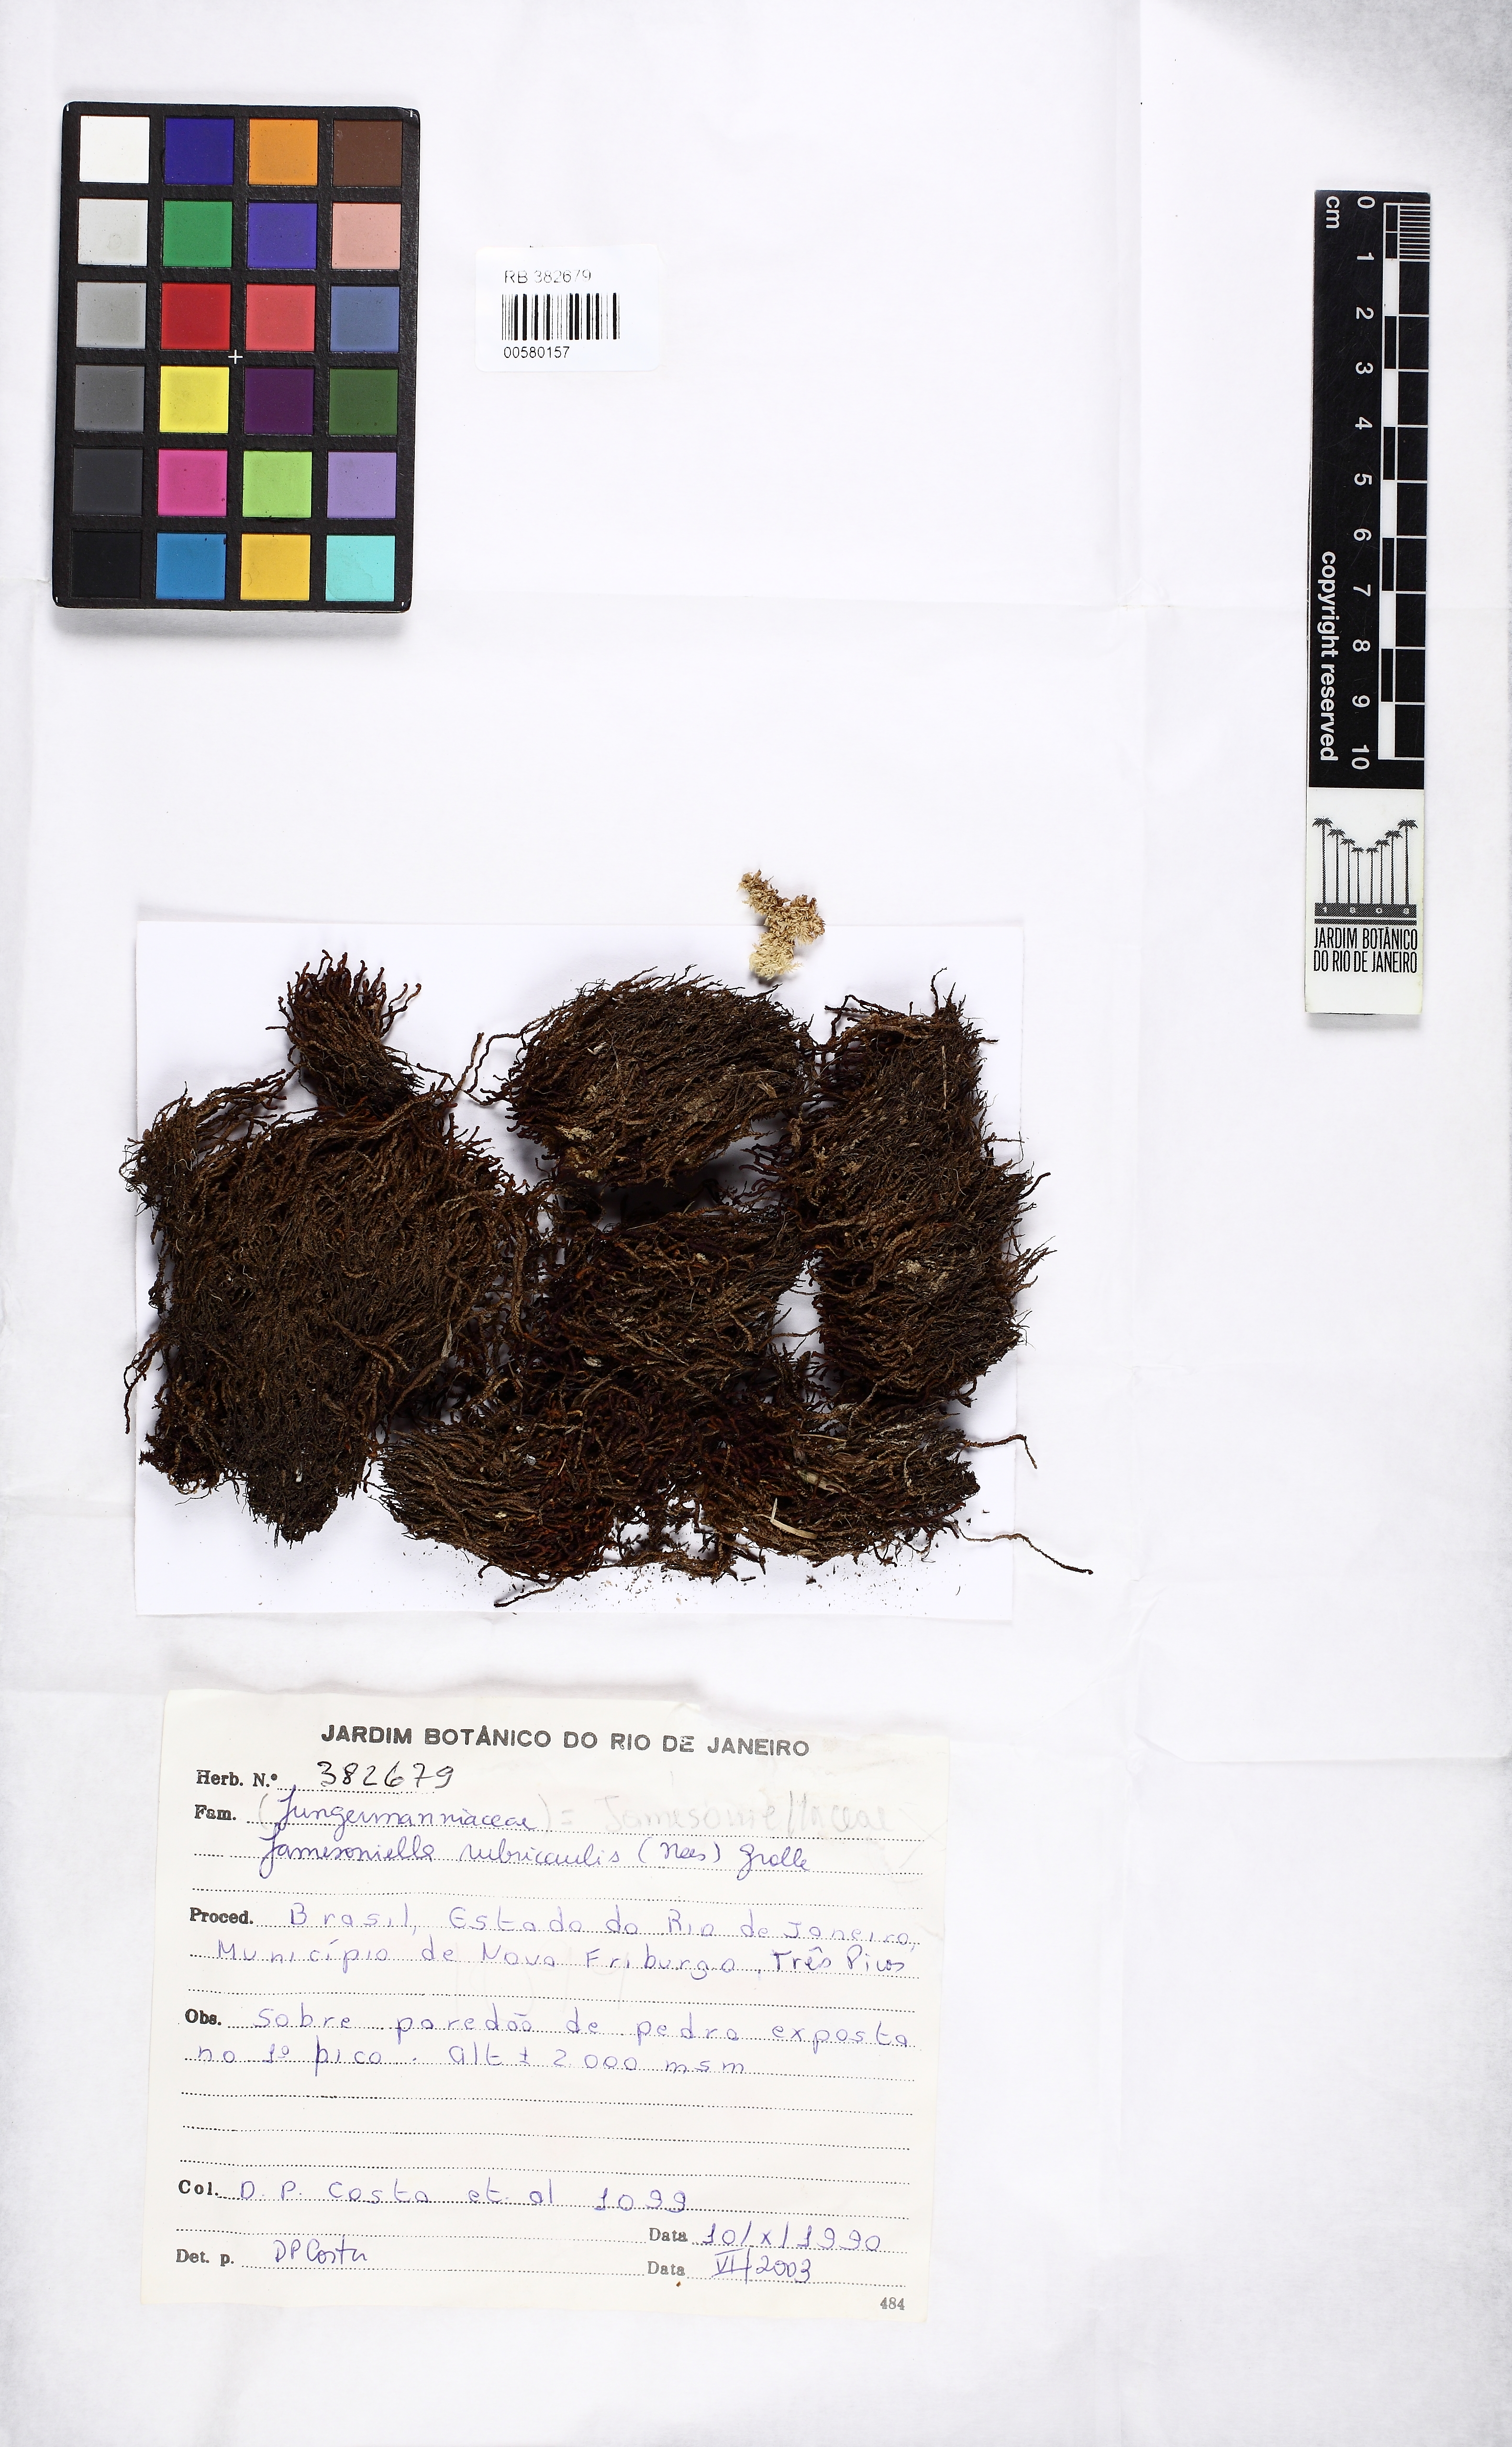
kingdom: Plantae
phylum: Marchantiophyta
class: Jungermanniopsida
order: Jungermanniales
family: Adelanthaceae
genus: Syzygiella
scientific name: Syzygiella rubricaulis
